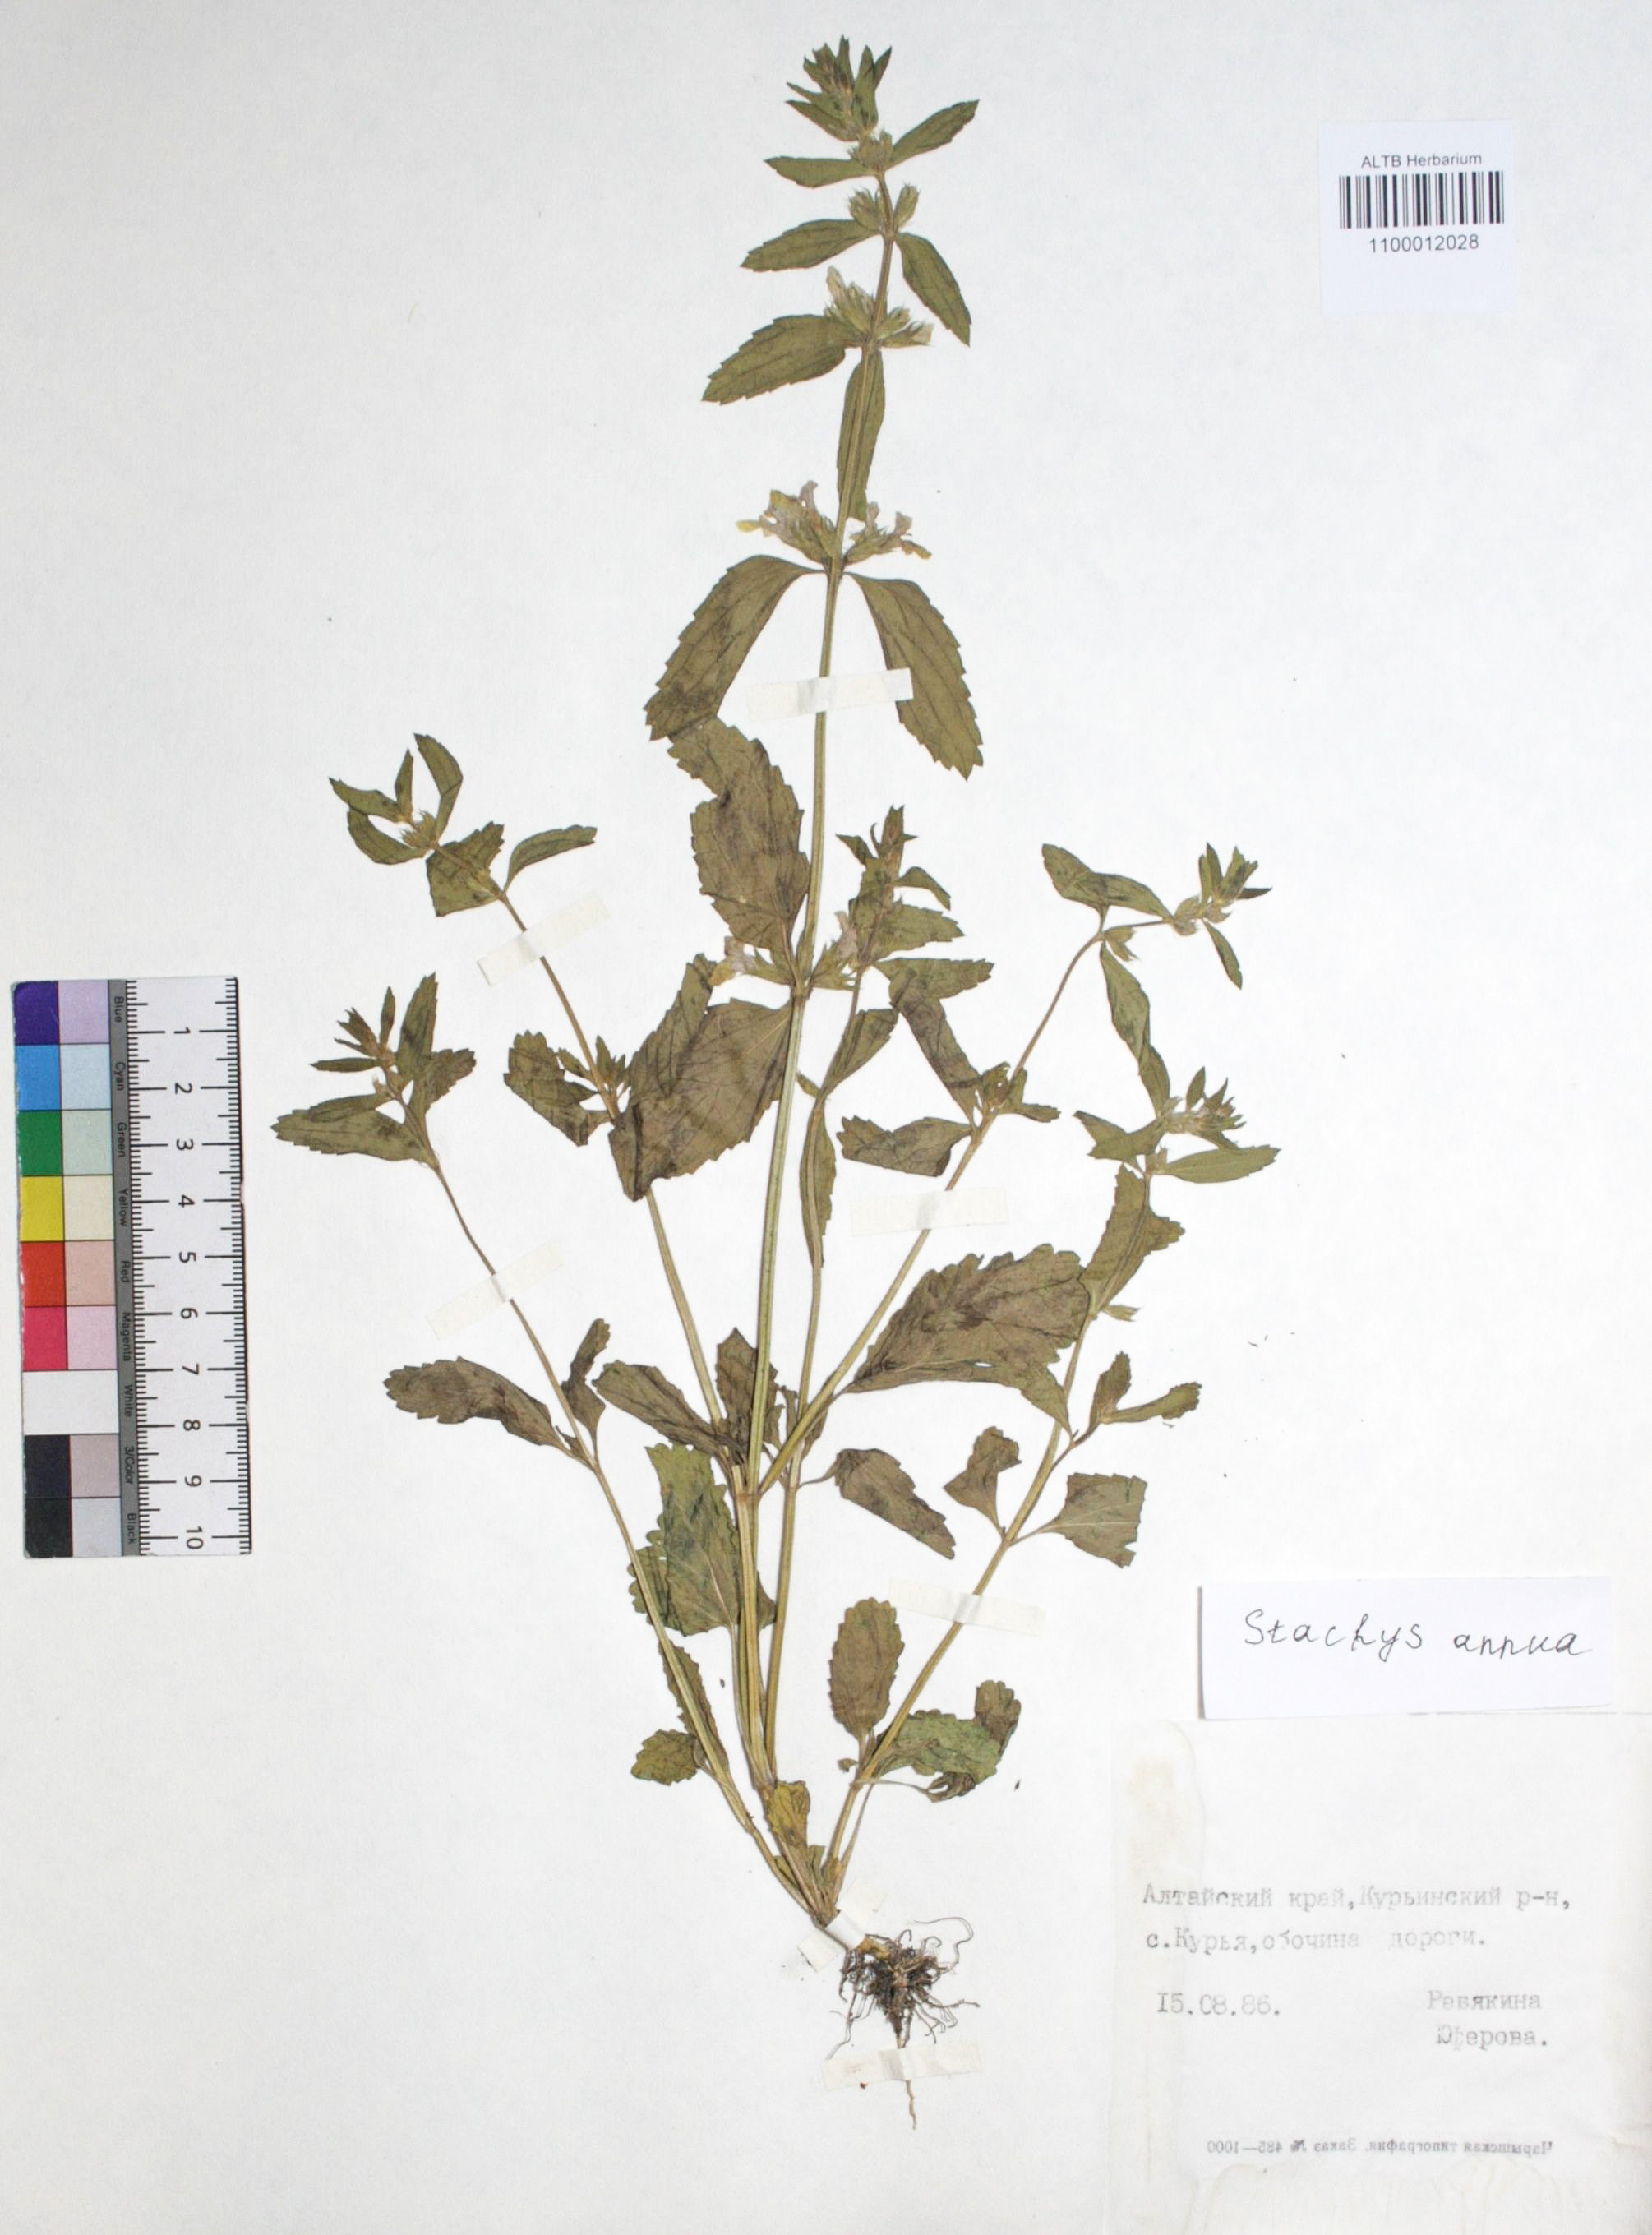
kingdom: Plantae
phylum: Tracheophyta
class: Magnoliopsida
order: Lamiales
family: Lamiaceae
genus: Stachys
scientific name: Stachys annua
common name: Annual yellow-woundwort
